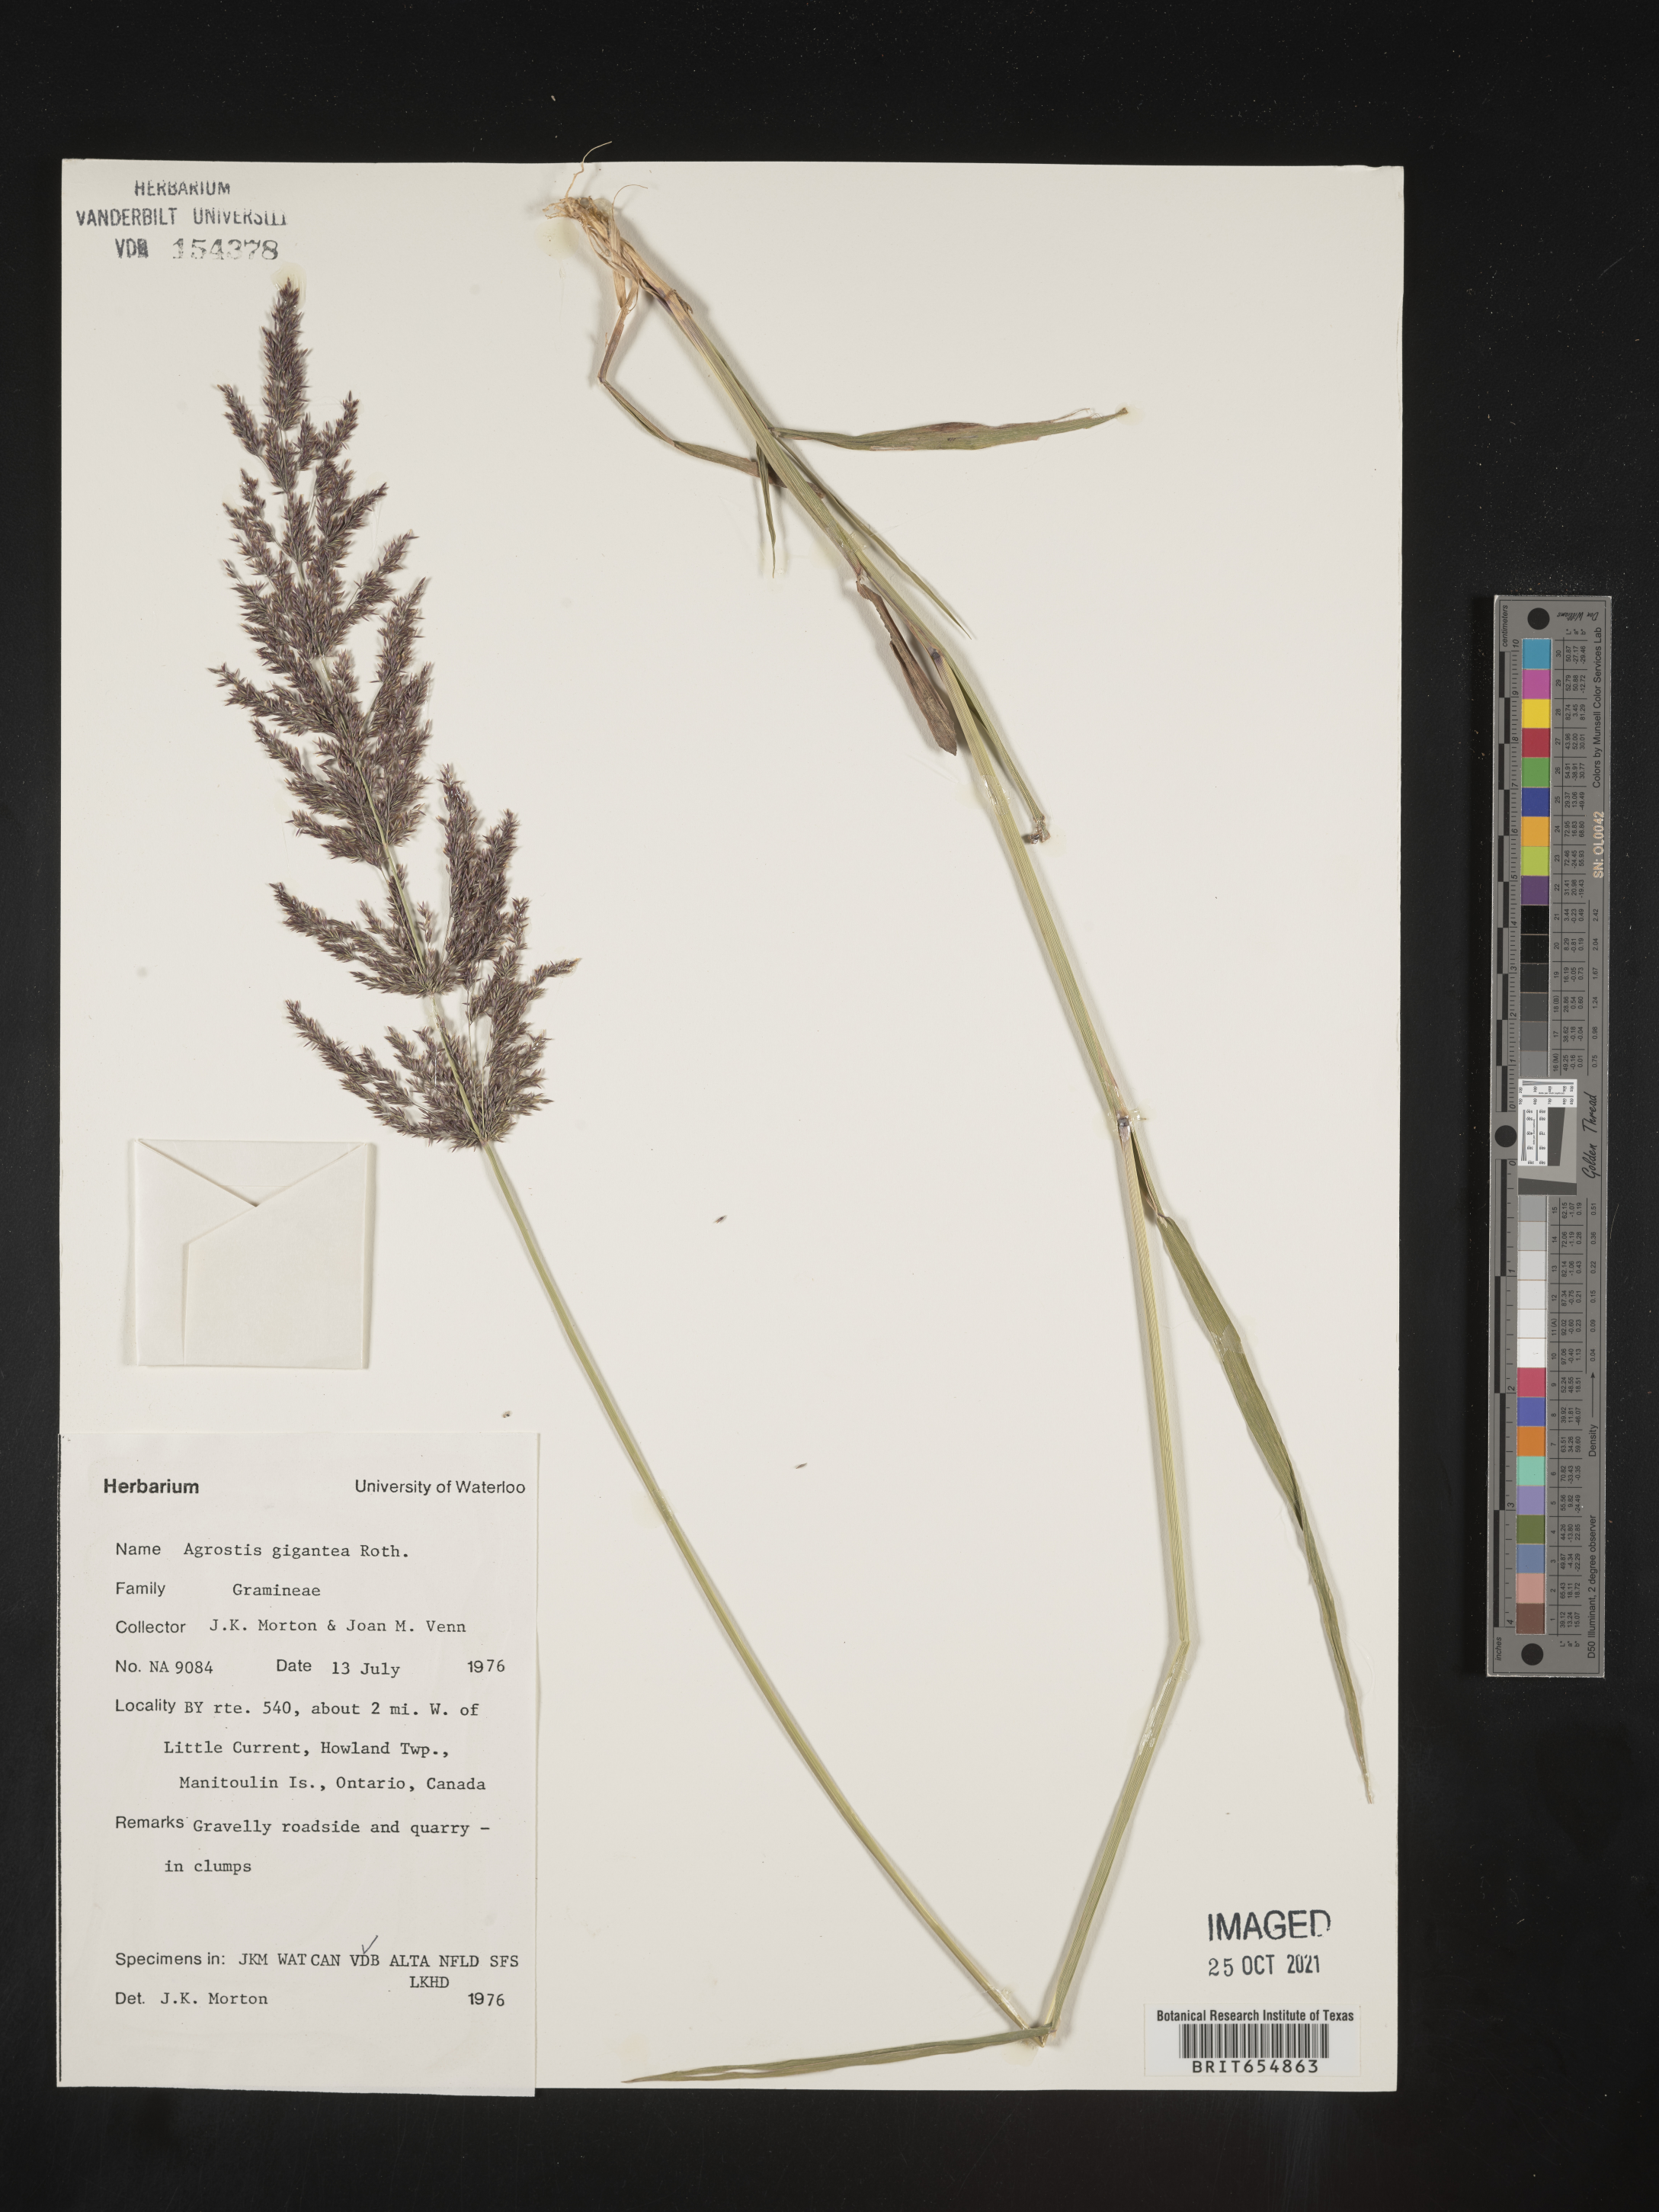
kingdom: Plantae
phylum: Tracheophyta
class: Liliopsida
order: Poales
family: Poaceae
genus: Agrostis
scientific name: Agrostis
